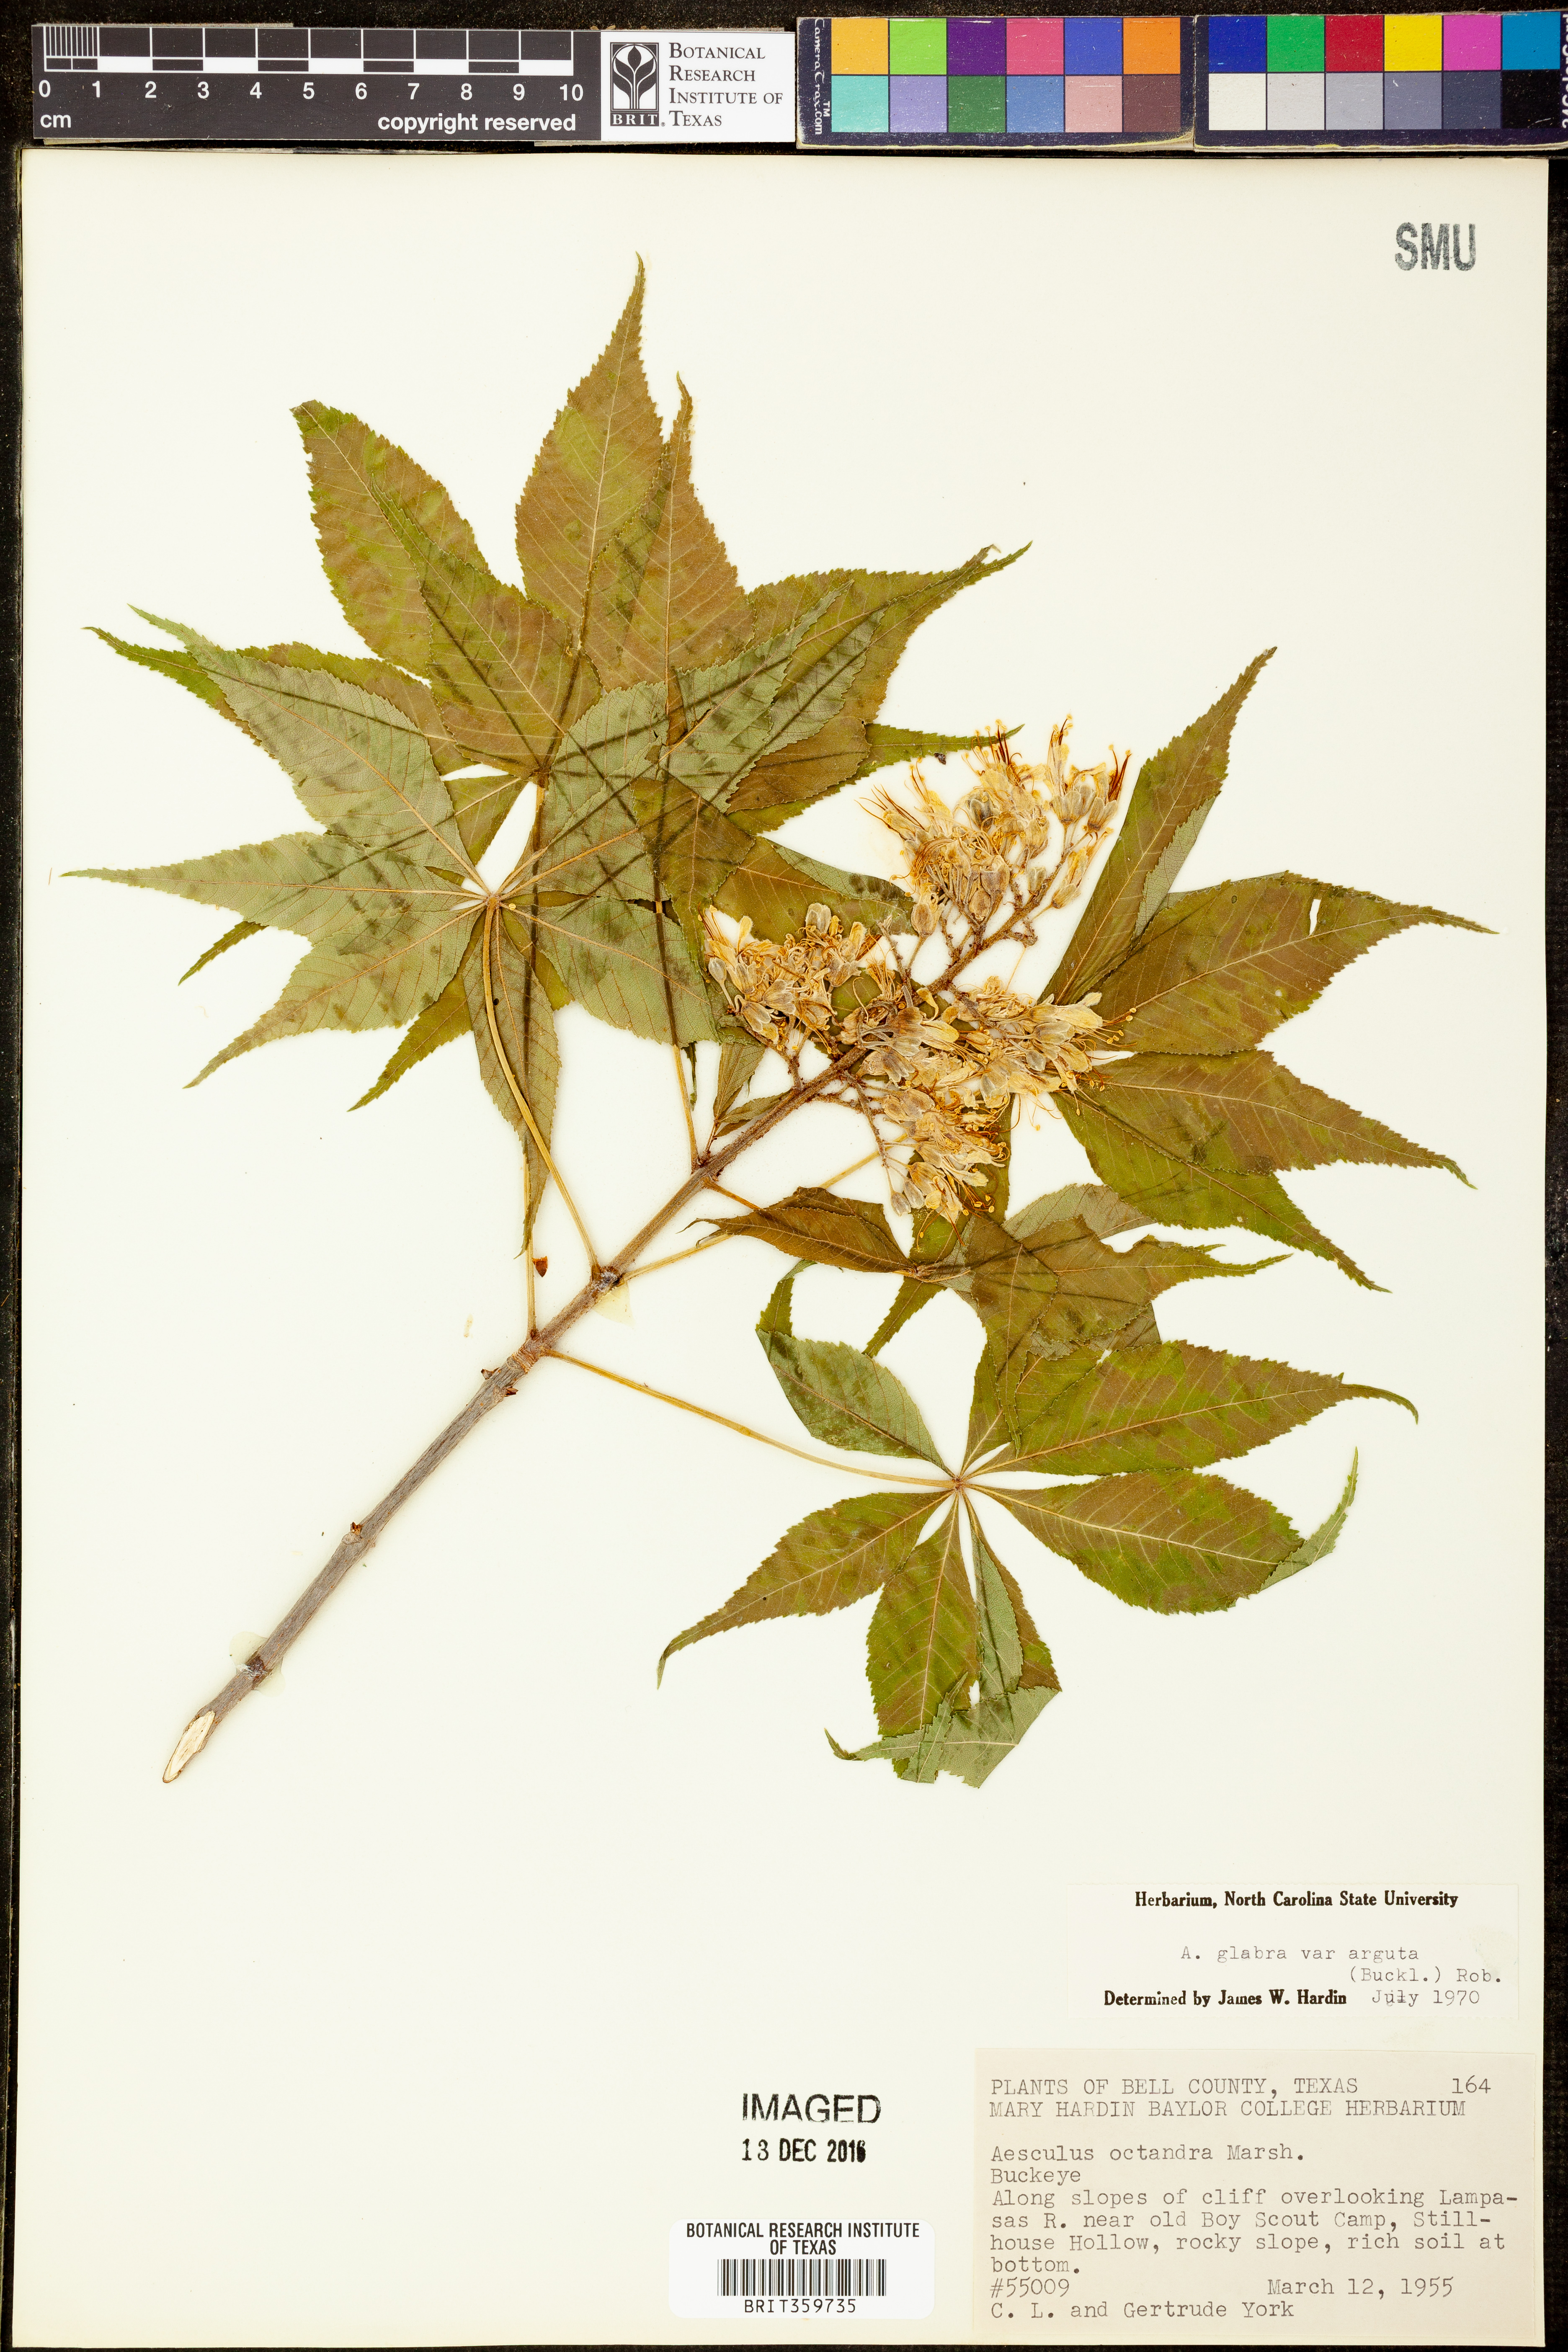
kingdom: Plantae
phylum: Tracheophyta
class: Magnoliopsida
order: Sapindales
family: Sapindaceae
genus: Aesculus
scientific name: Aesculus glabra
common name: Ohio buckeye
